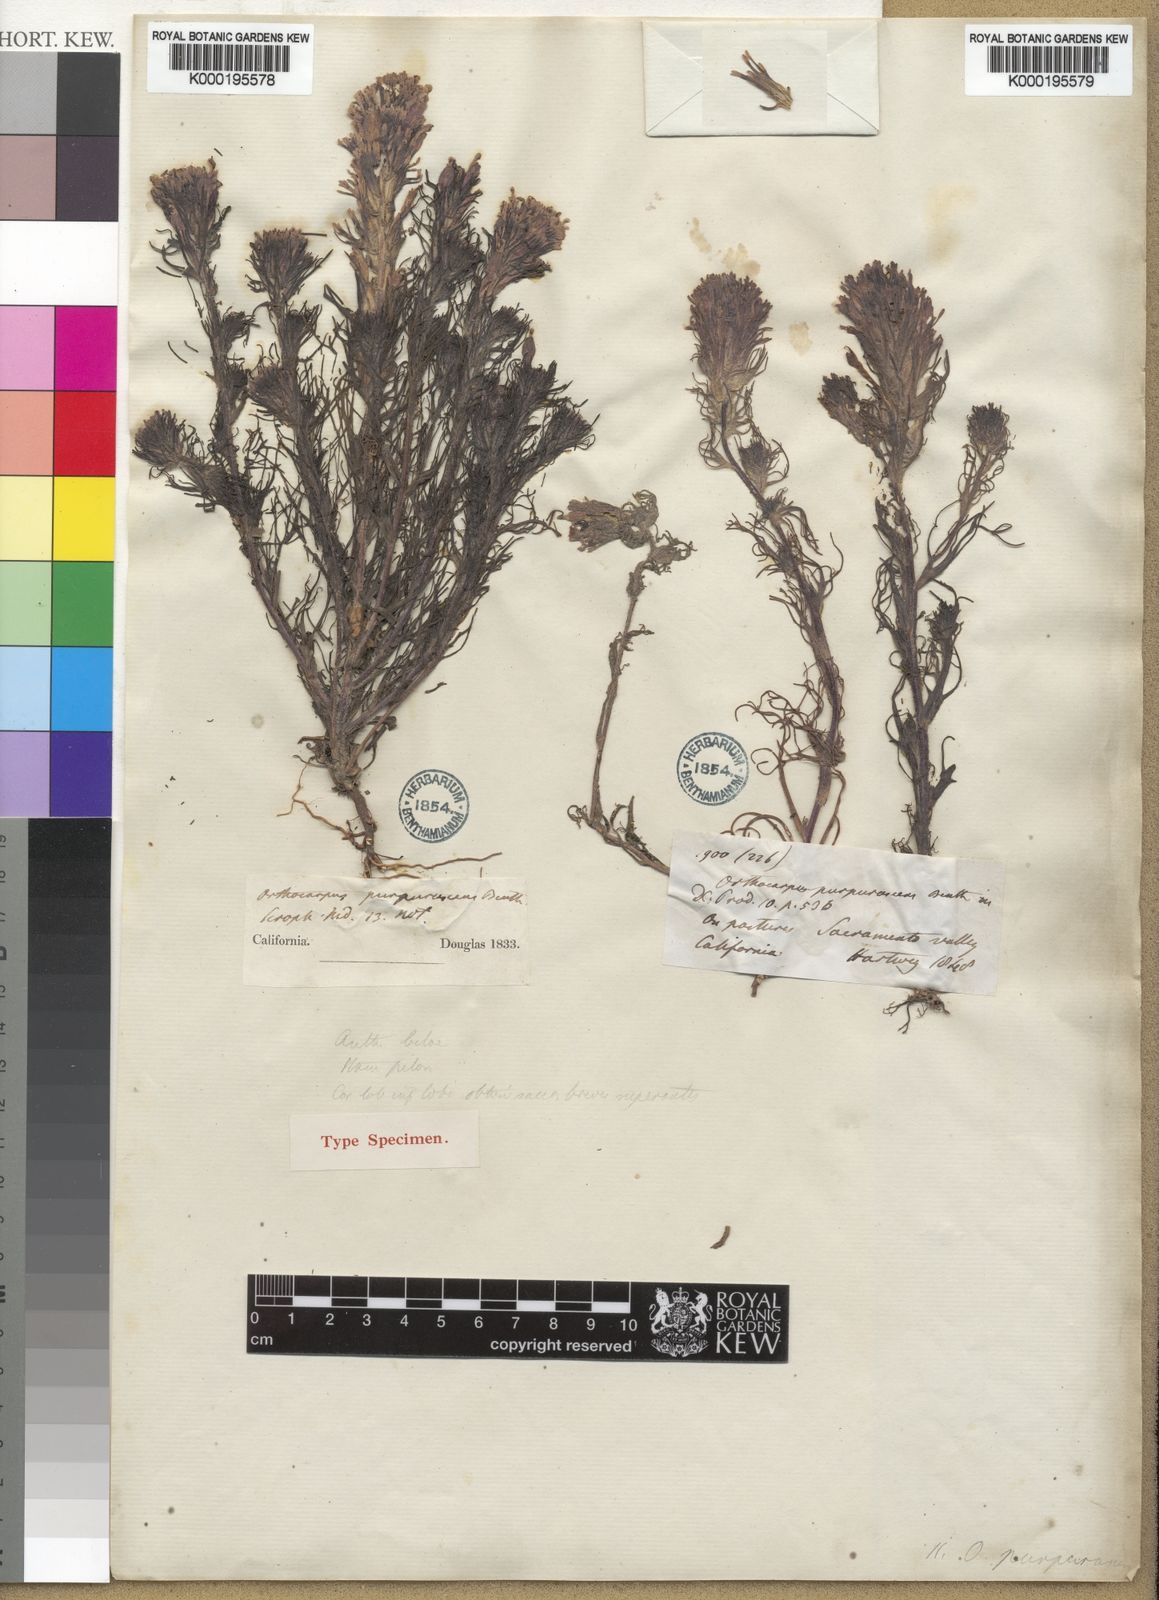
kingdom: Plantae
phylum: Tracheophyta
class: Magnoliopsida
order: Lamiales
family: Orobanchaceae
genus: Castilleja
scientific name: Castilleja exserta
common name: Purple owl-clover
